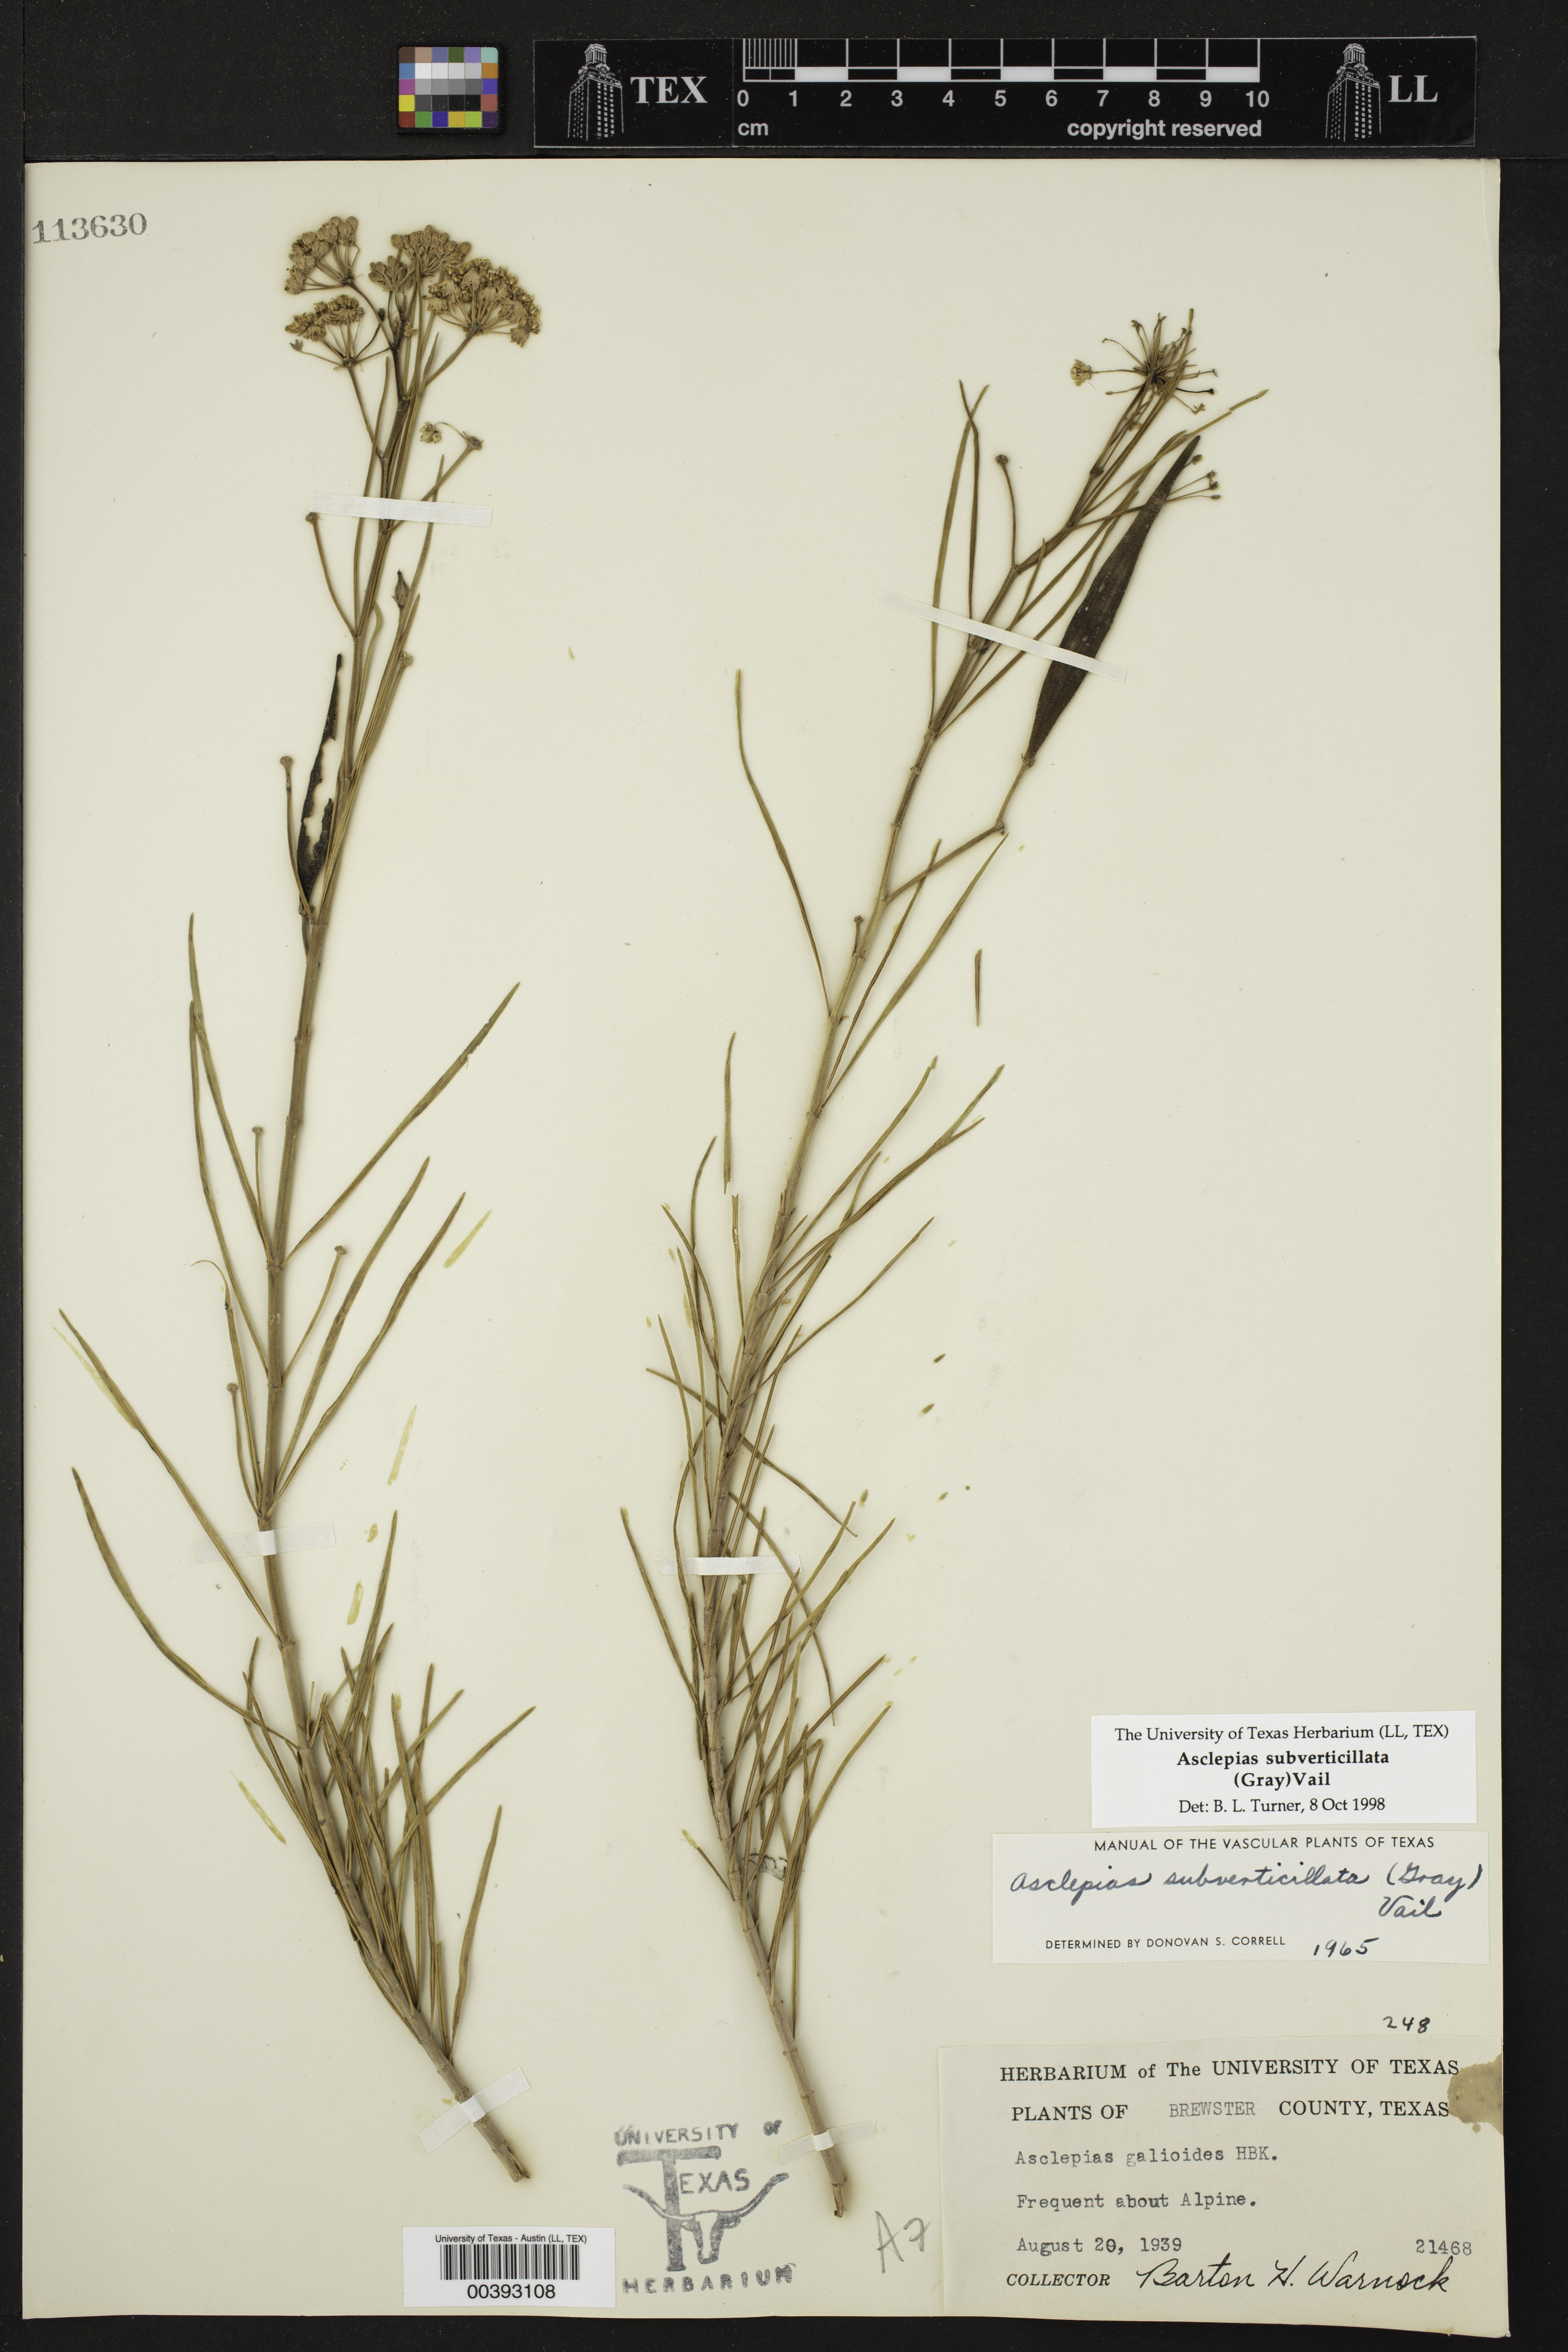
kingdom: Plantae
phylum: Tracheophyta
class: Magnoliopsida
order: Gentianales
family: Apocynaceae
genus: Asclepias
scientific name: Asclepias subverticillata
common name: Horsetail milkweed
